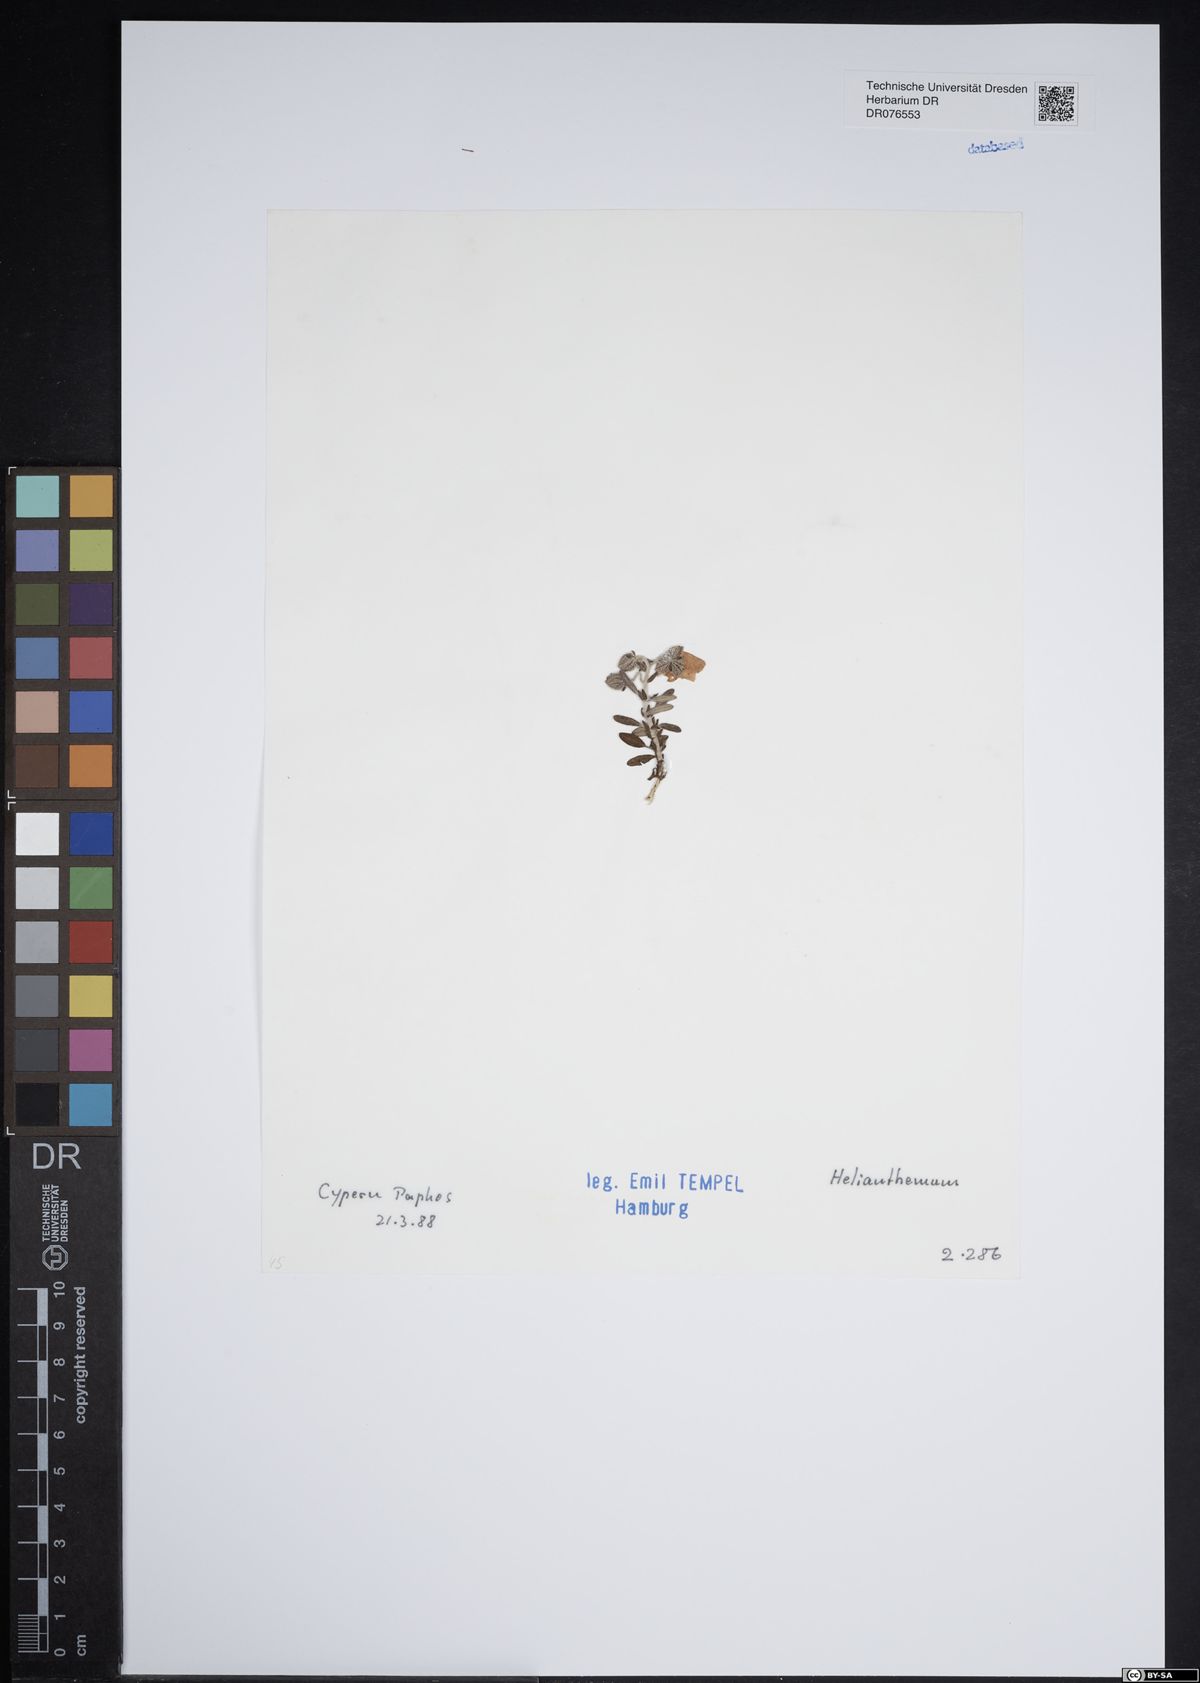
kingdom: Plantae
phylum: Tracheophyta
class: Magnoliopsida
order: Malvales
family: Cistaceae
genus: Helianthemum
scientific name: Helianthemum
